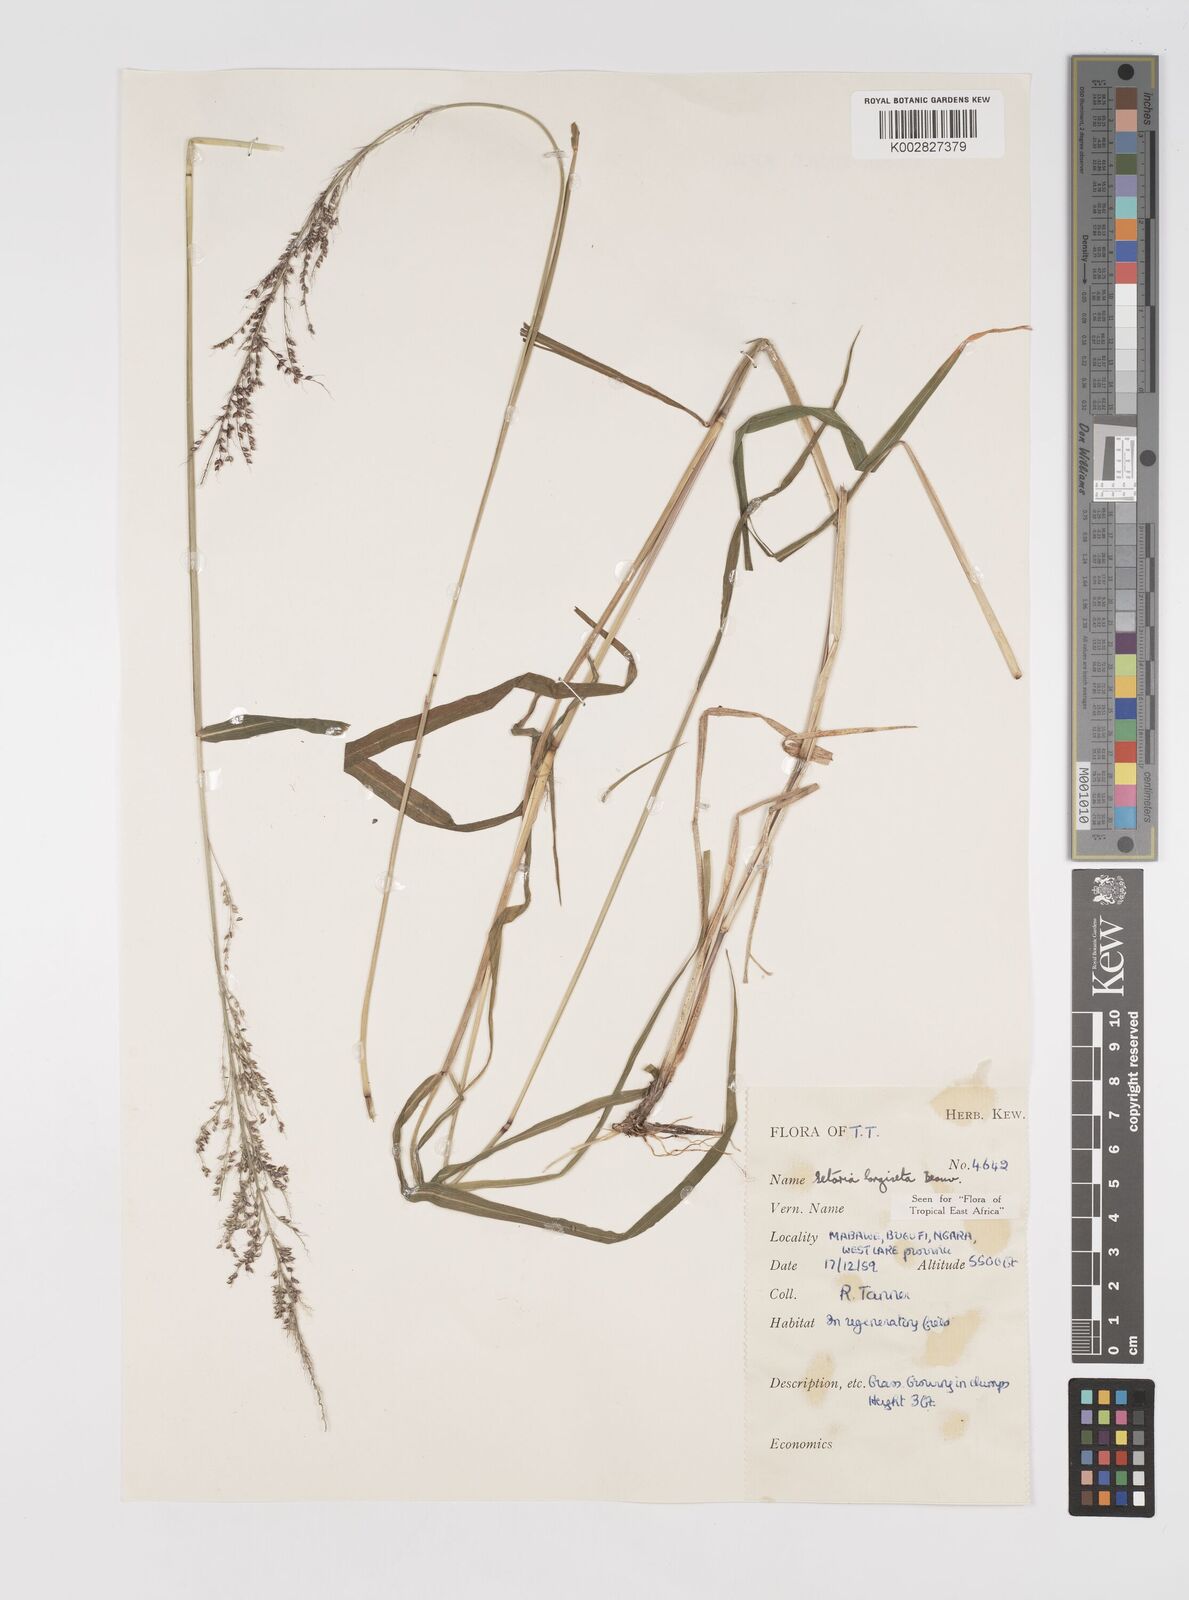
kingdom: Plantae
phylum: Tracheophyta
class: Liliopsida
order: Poales
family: Poaceae
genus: Setaria
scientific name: Setaria longiseta
